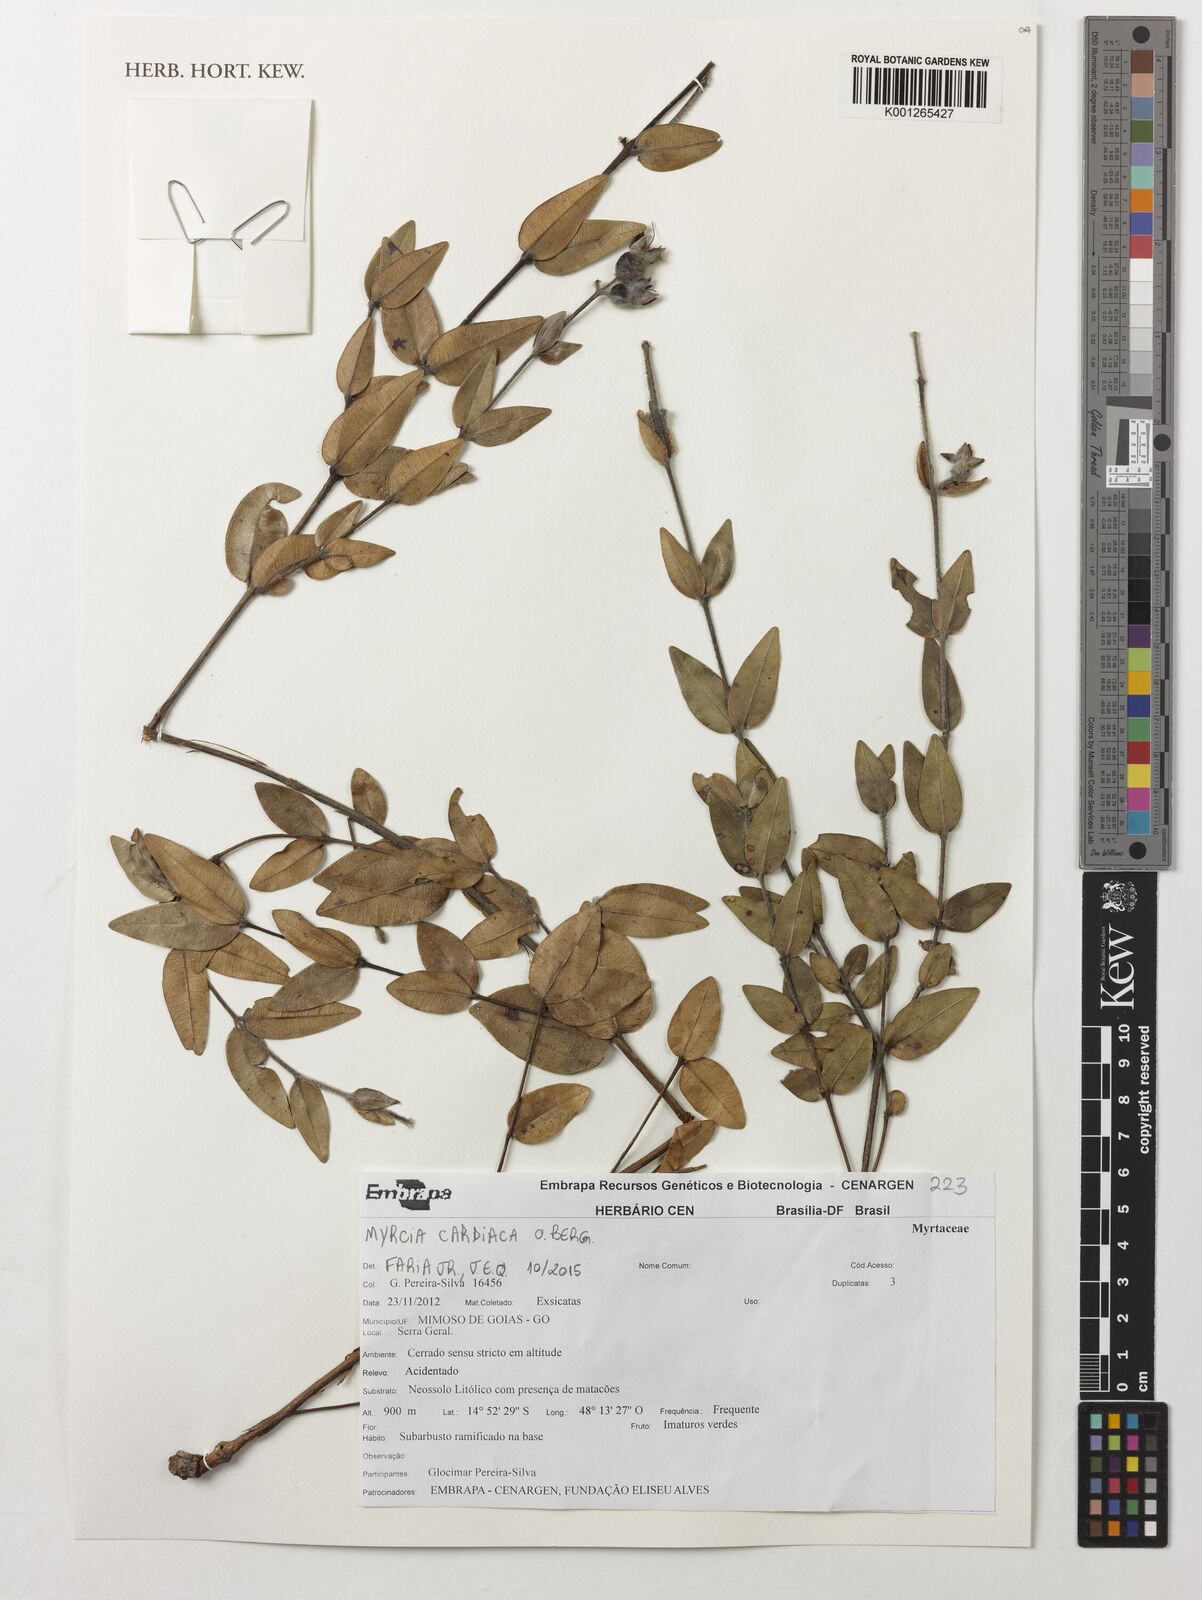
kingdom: Plantae
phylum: Tracheophyta
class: Magnoliopsida
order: Myrtales
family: Myrtaceae
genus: Myrcia
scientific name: Myrcia cardiaca
